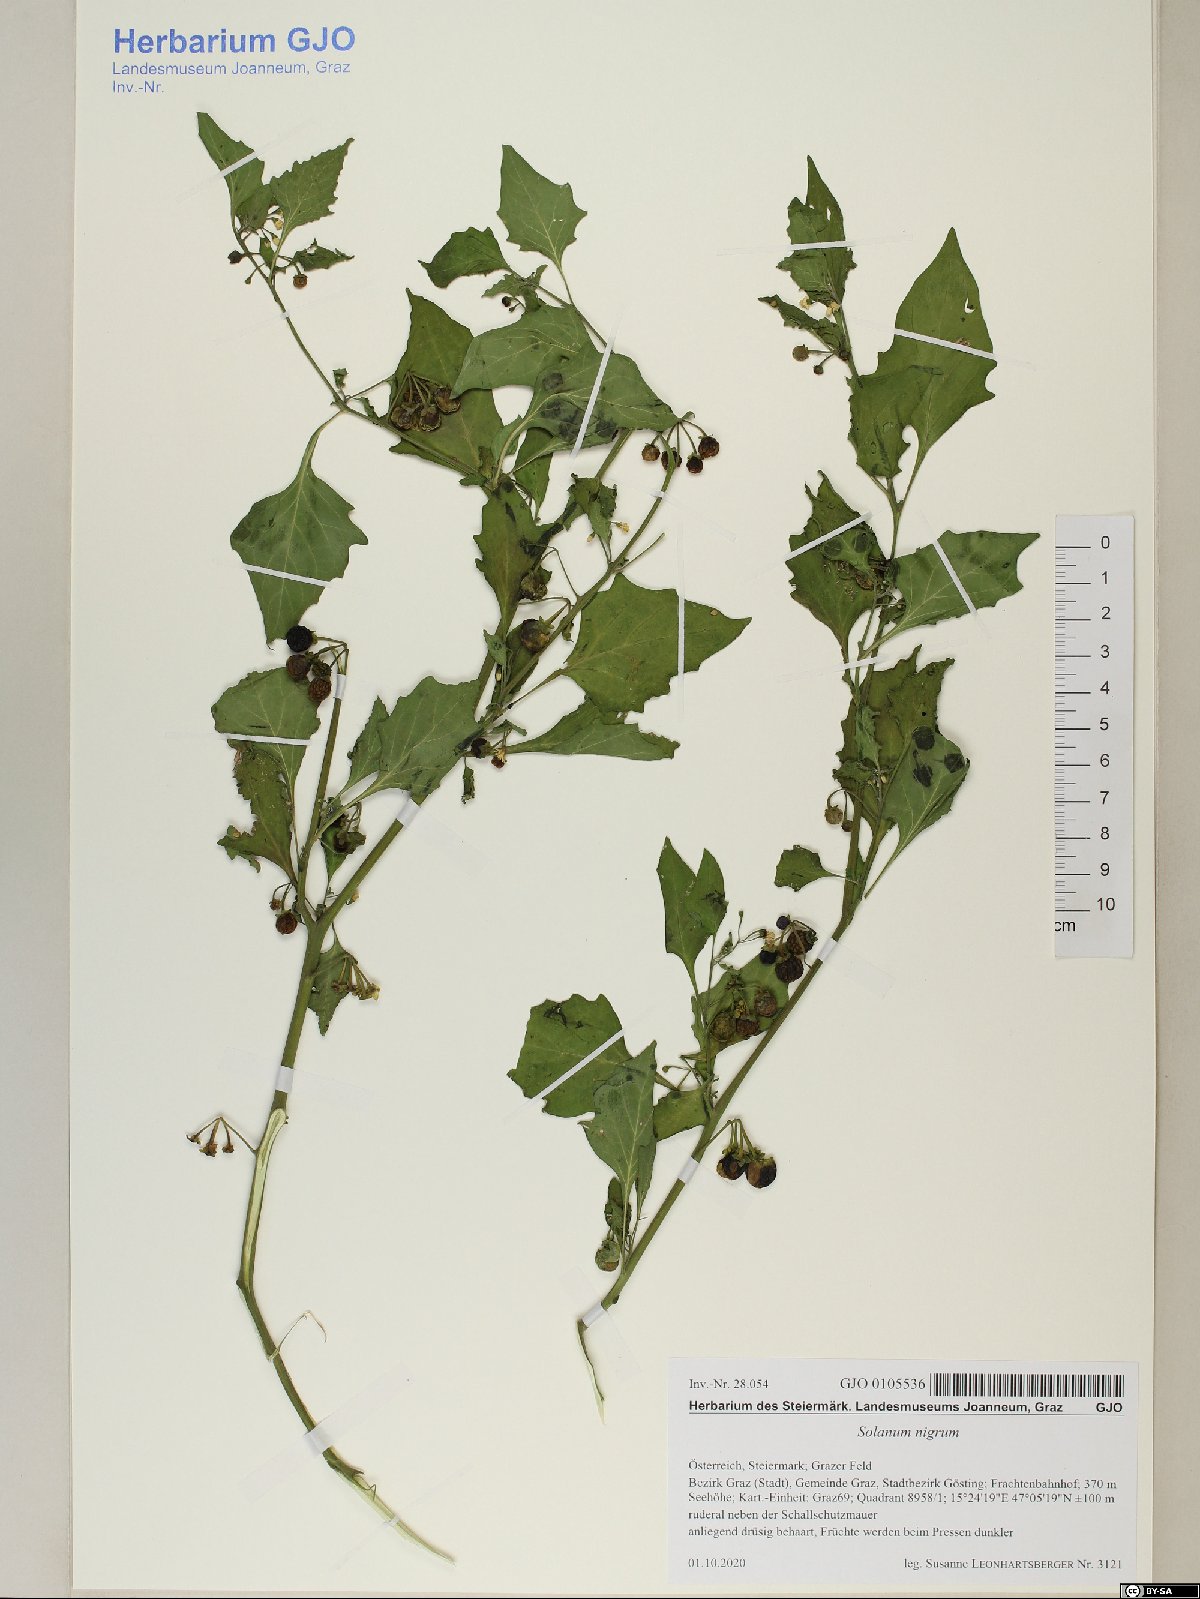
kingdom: Plantae
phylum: Tracheophyta
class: Magnoliopsida
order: Solanales
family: Solanaceae
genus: Solanum
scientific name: Solanum nigrum
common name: Black nightshade
